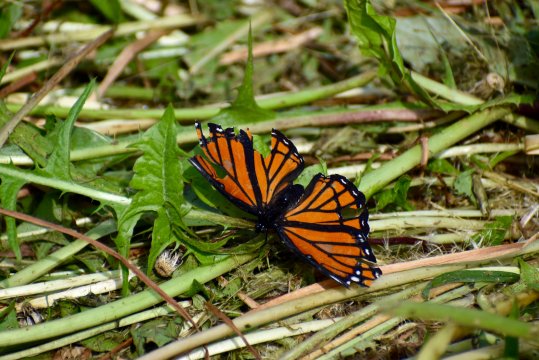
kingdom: Animalia
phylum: Arthropoda
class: Insecta
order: Lepidoptera
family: Nymphalidae
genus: Limenitis
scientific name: Limenitis archippus
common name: Viceroy
